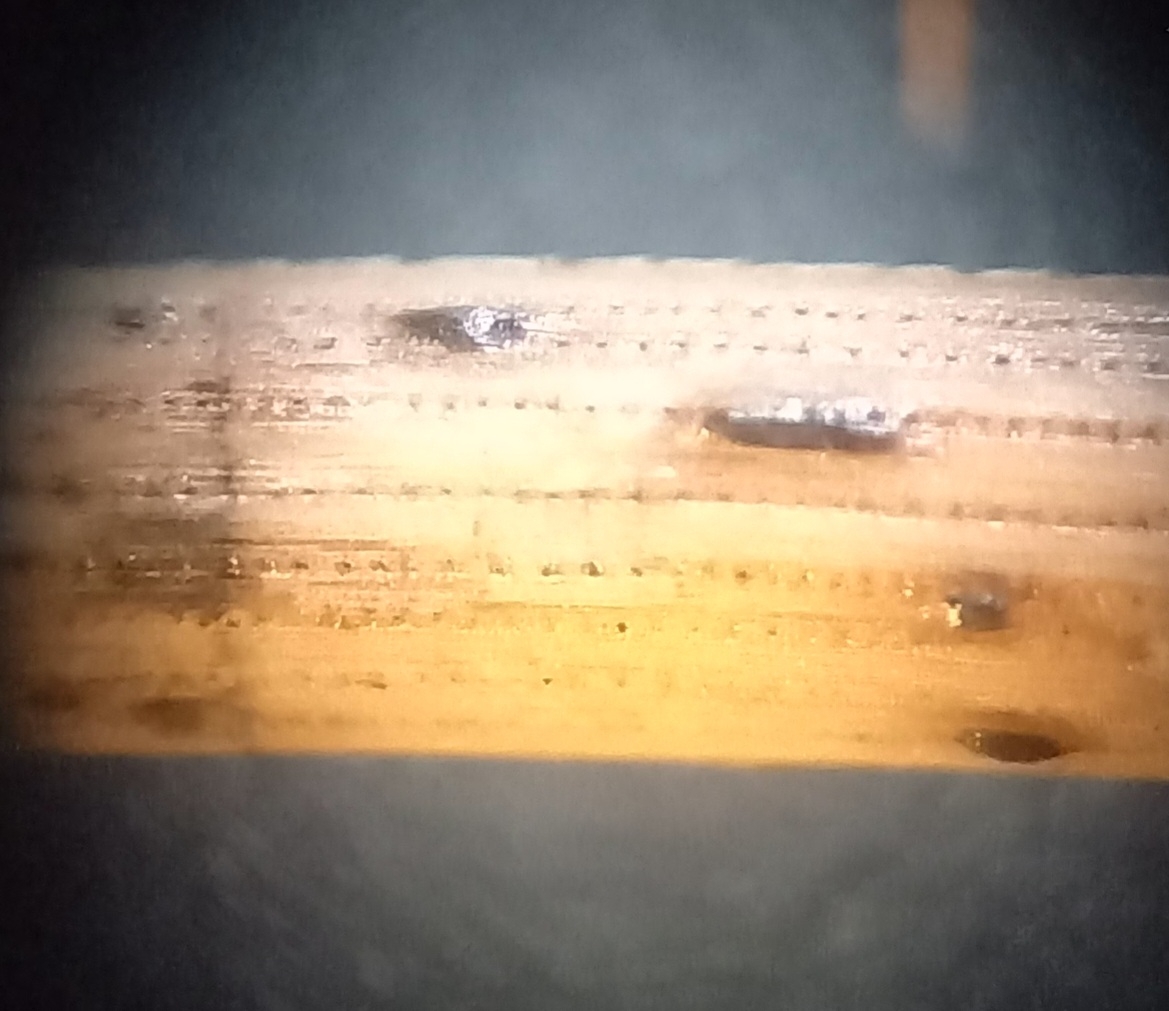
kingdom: Fungi
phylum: Ascomycota
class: Leotiomycetes
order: Rhytismatales
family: Rhytismataceae
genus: Lophodermium
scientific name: Lophodermium pinastri
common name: fyrre-fureplet
